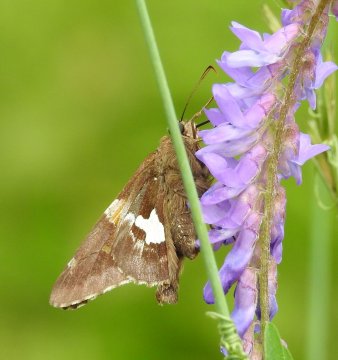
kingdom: Animalia
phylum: Arthropoda
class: Insecta
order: Lepidoptera
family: Hesperiidae
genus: Epargyreus
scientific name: Epargyreus clarus
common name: Silver-spotted Skipper
